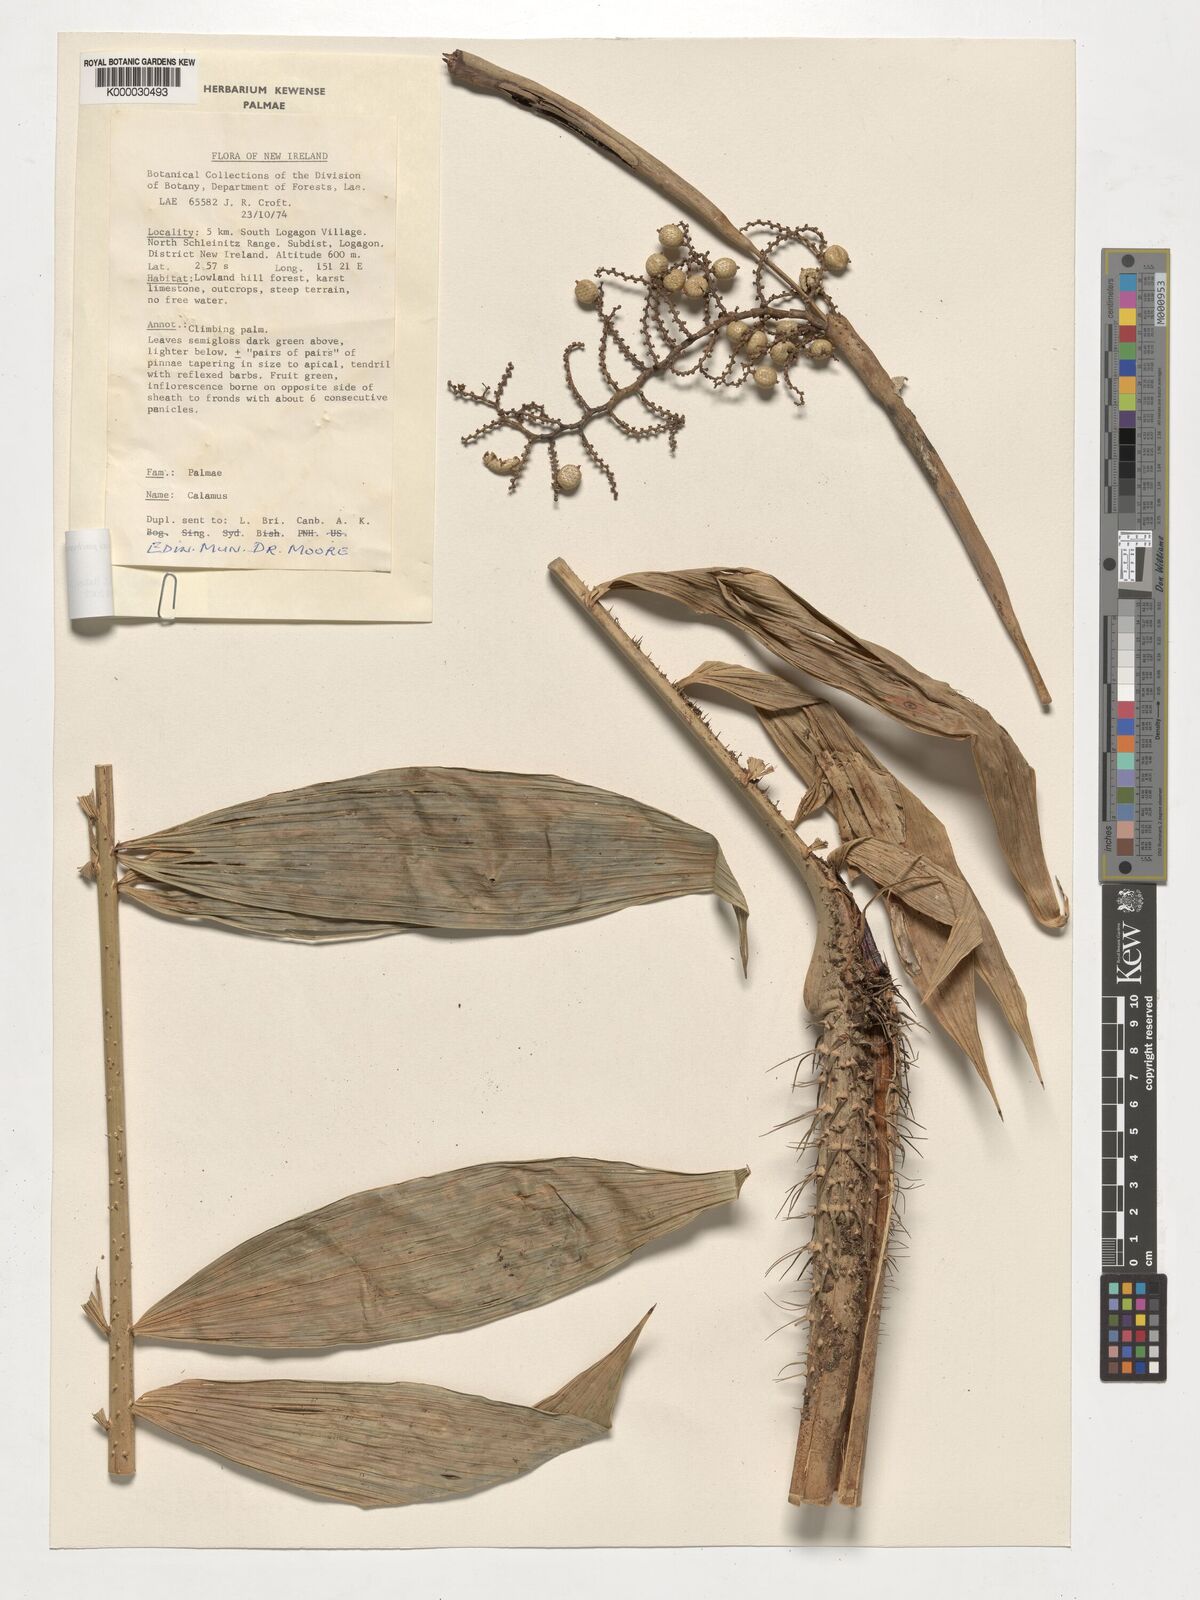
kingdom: Plantae
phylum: Tracheophyta
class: Liliopsida
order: Arecales
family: Arecaceae
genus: Calamus
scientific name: Calamus
